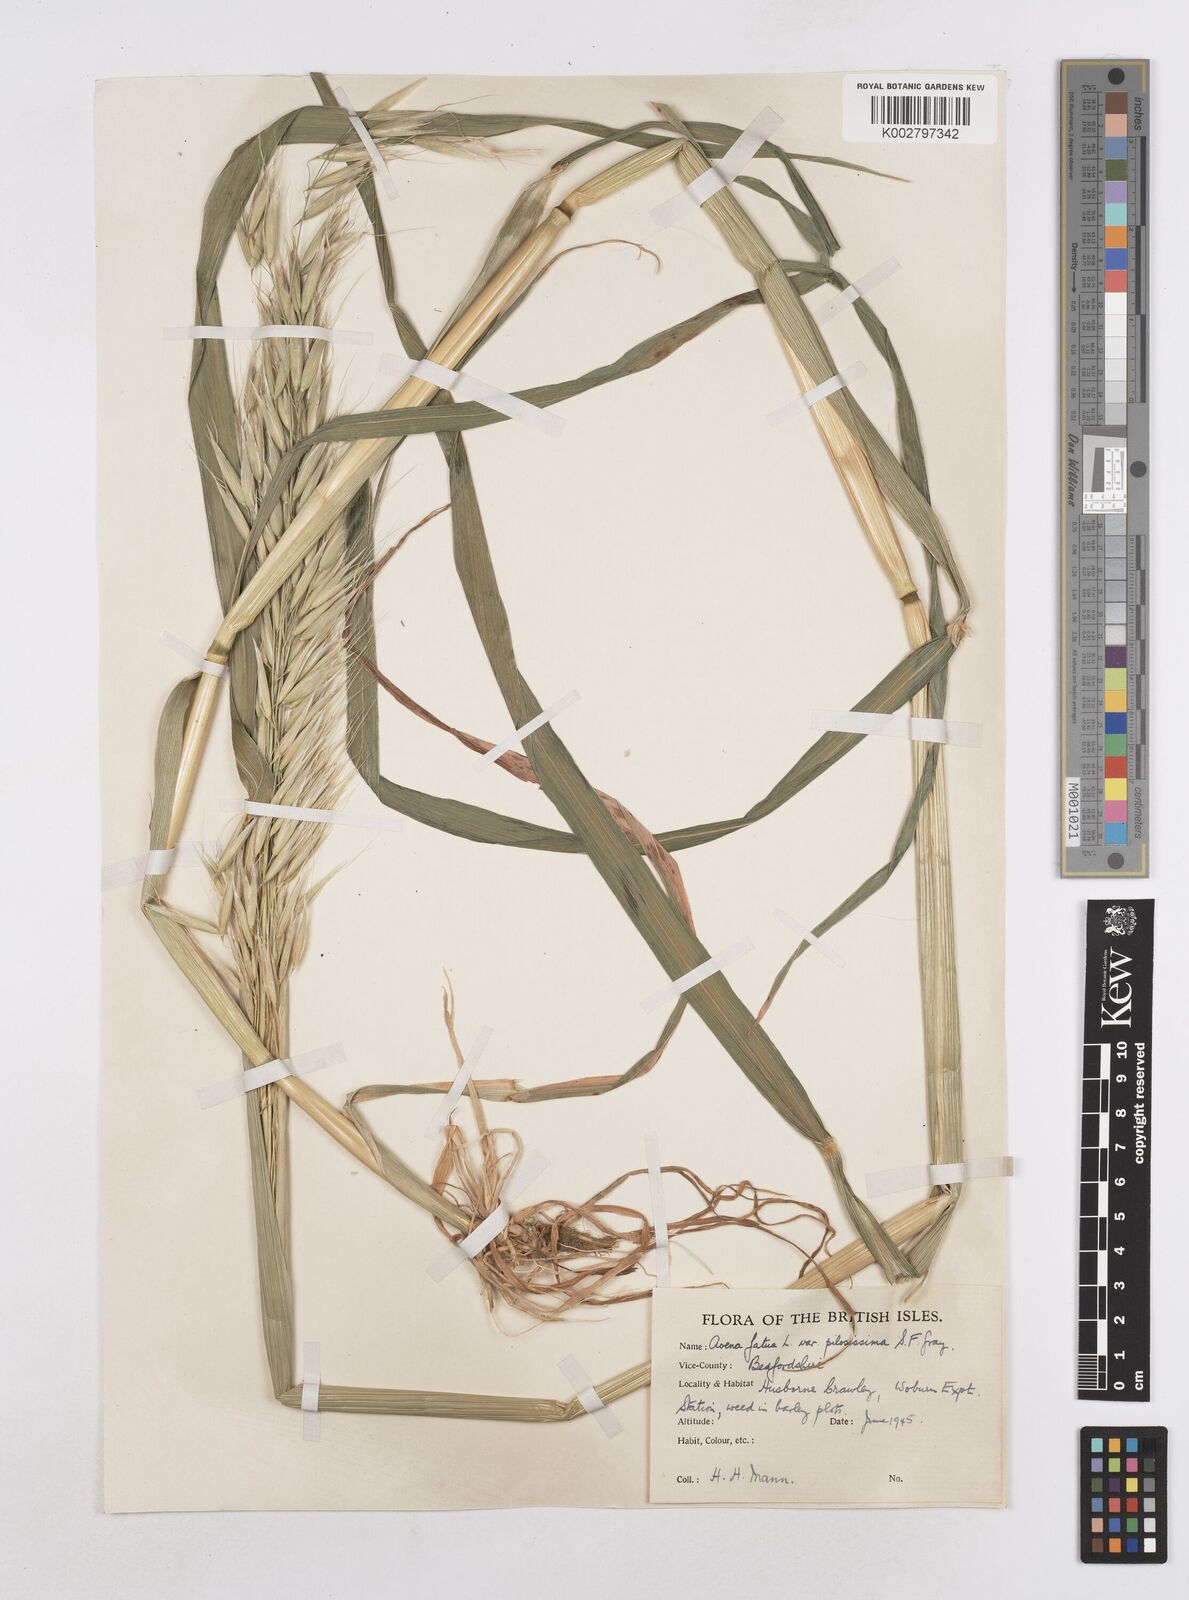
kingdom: Plantae
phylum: Tracheophyta
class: Liliopsida
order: Poales
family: Poaceae
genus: Avena
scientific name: Avena fatua
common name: Wild oat
